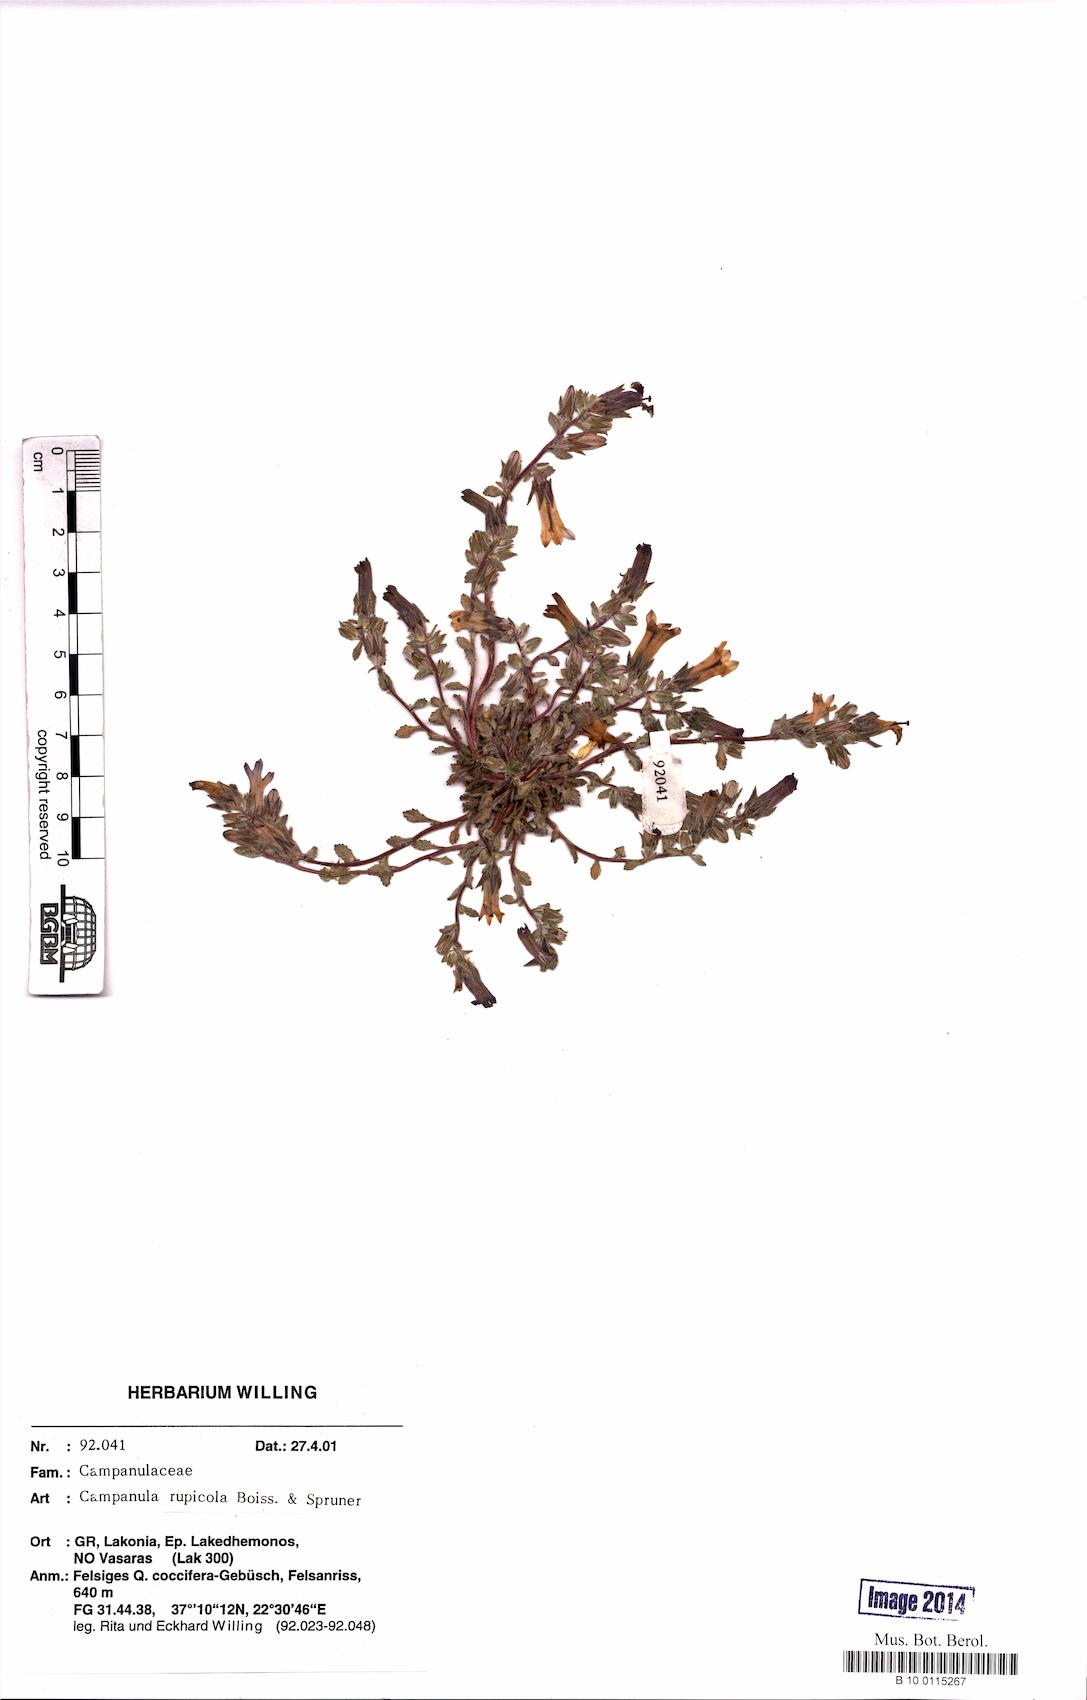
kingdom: Plantae
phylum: Tracheophyta
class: Magnoliopsida
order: Asterales
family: Campanulaceae
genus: Campanula
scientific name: Campanula rupicola
